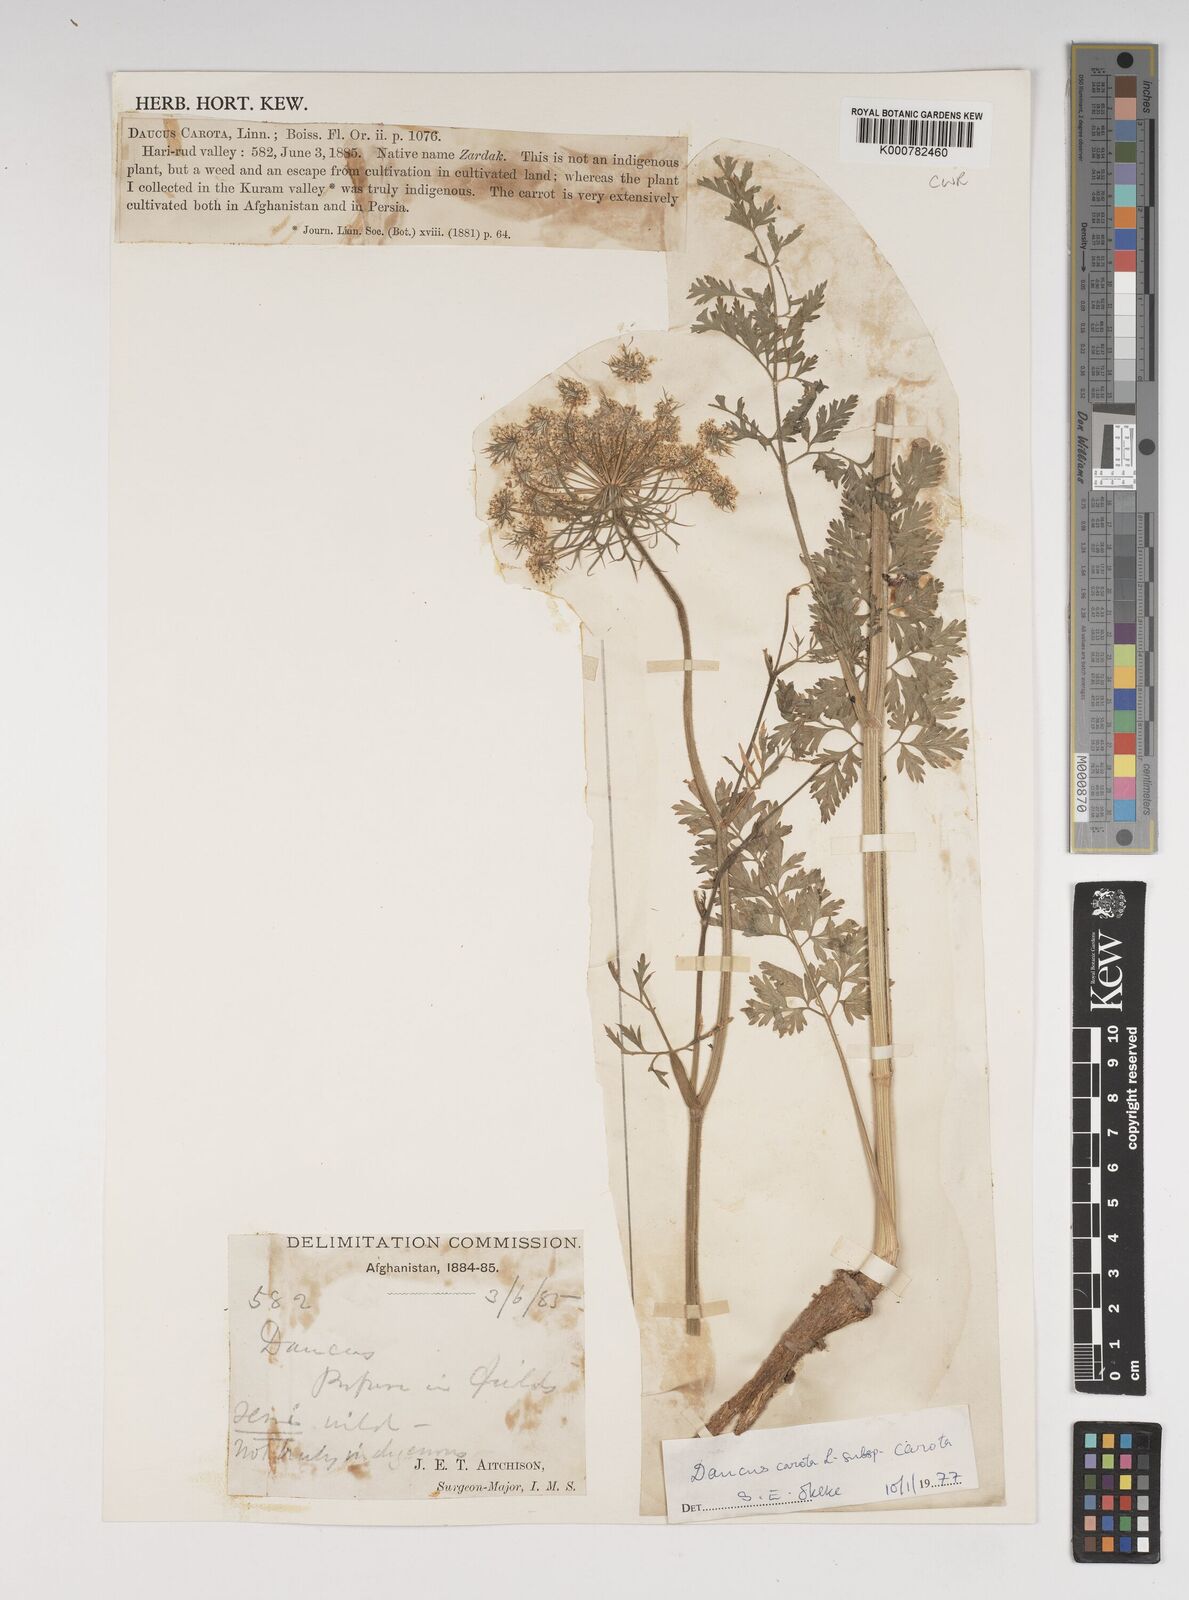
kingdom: Plantae
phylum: Tracheophyta
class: Magnoliopsida
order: Apiales
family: Apiaceae
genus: Daucus
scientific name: Daucus carota
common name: Wild carrot
